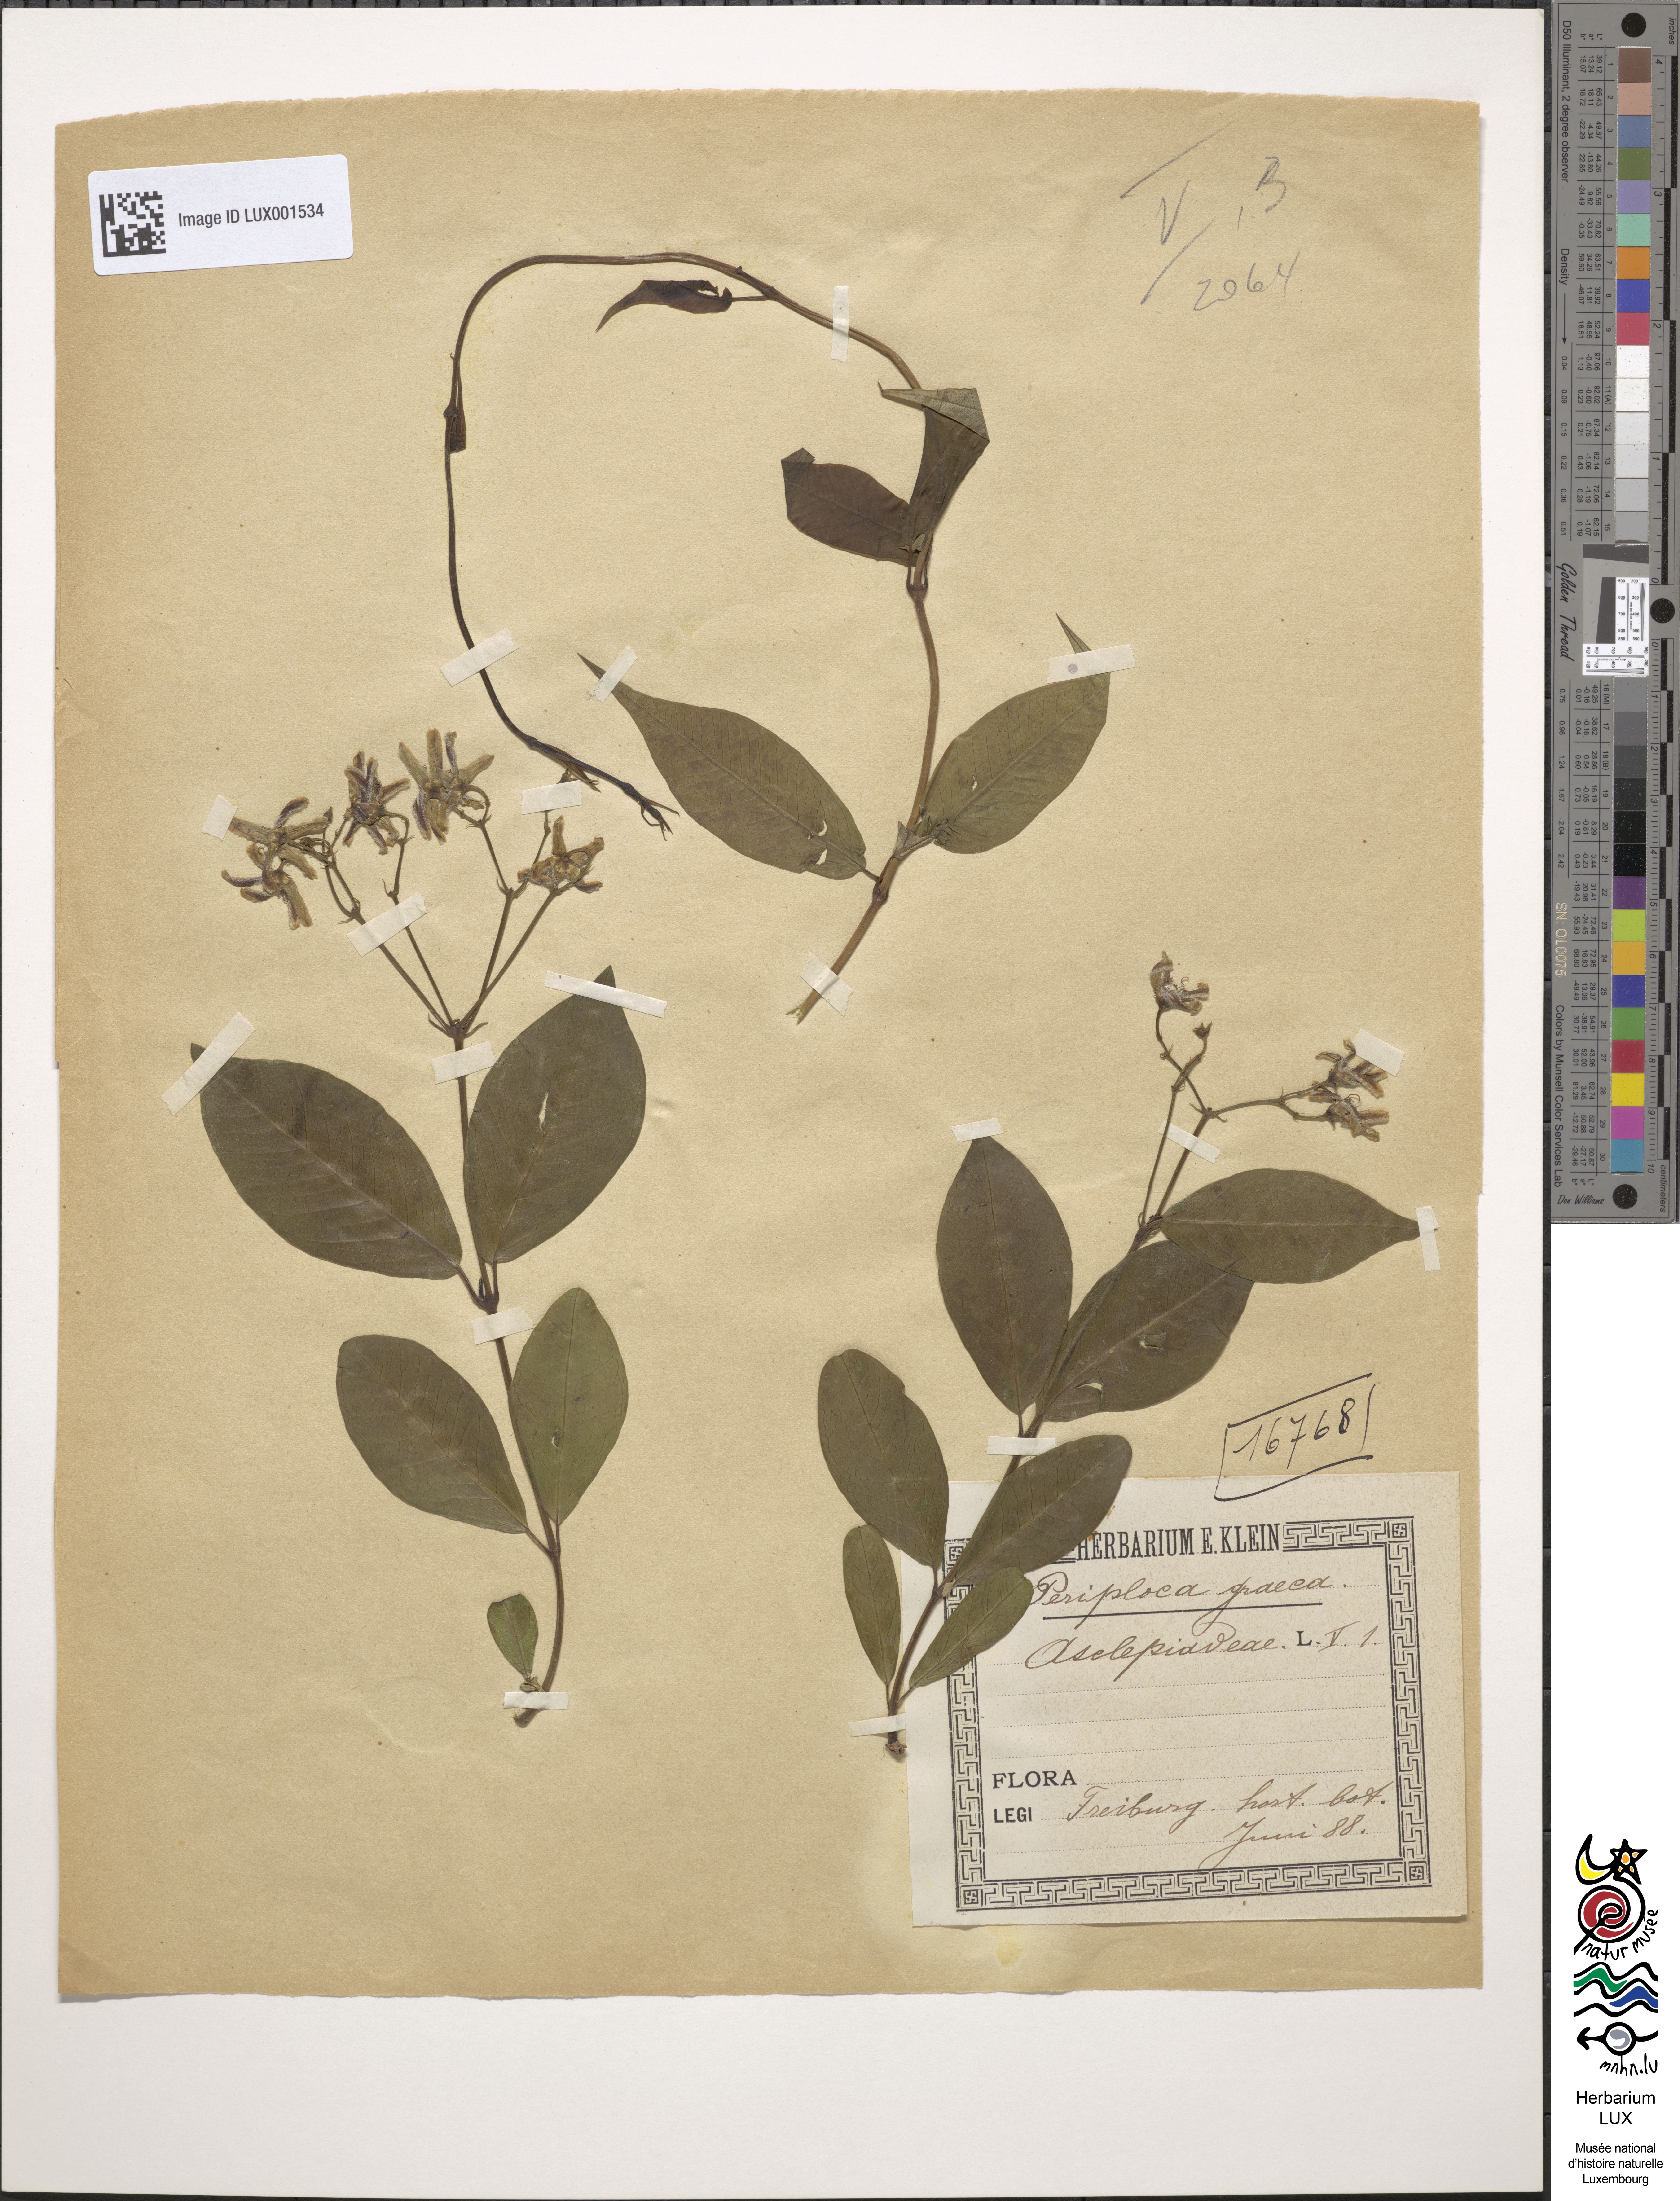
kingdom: Plantae
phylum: Tracheophyta
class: Magnoliopsida
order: Gentianales
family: Apocynaceae
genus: Periploca
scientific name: Periploca graeca
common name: Silkvine
